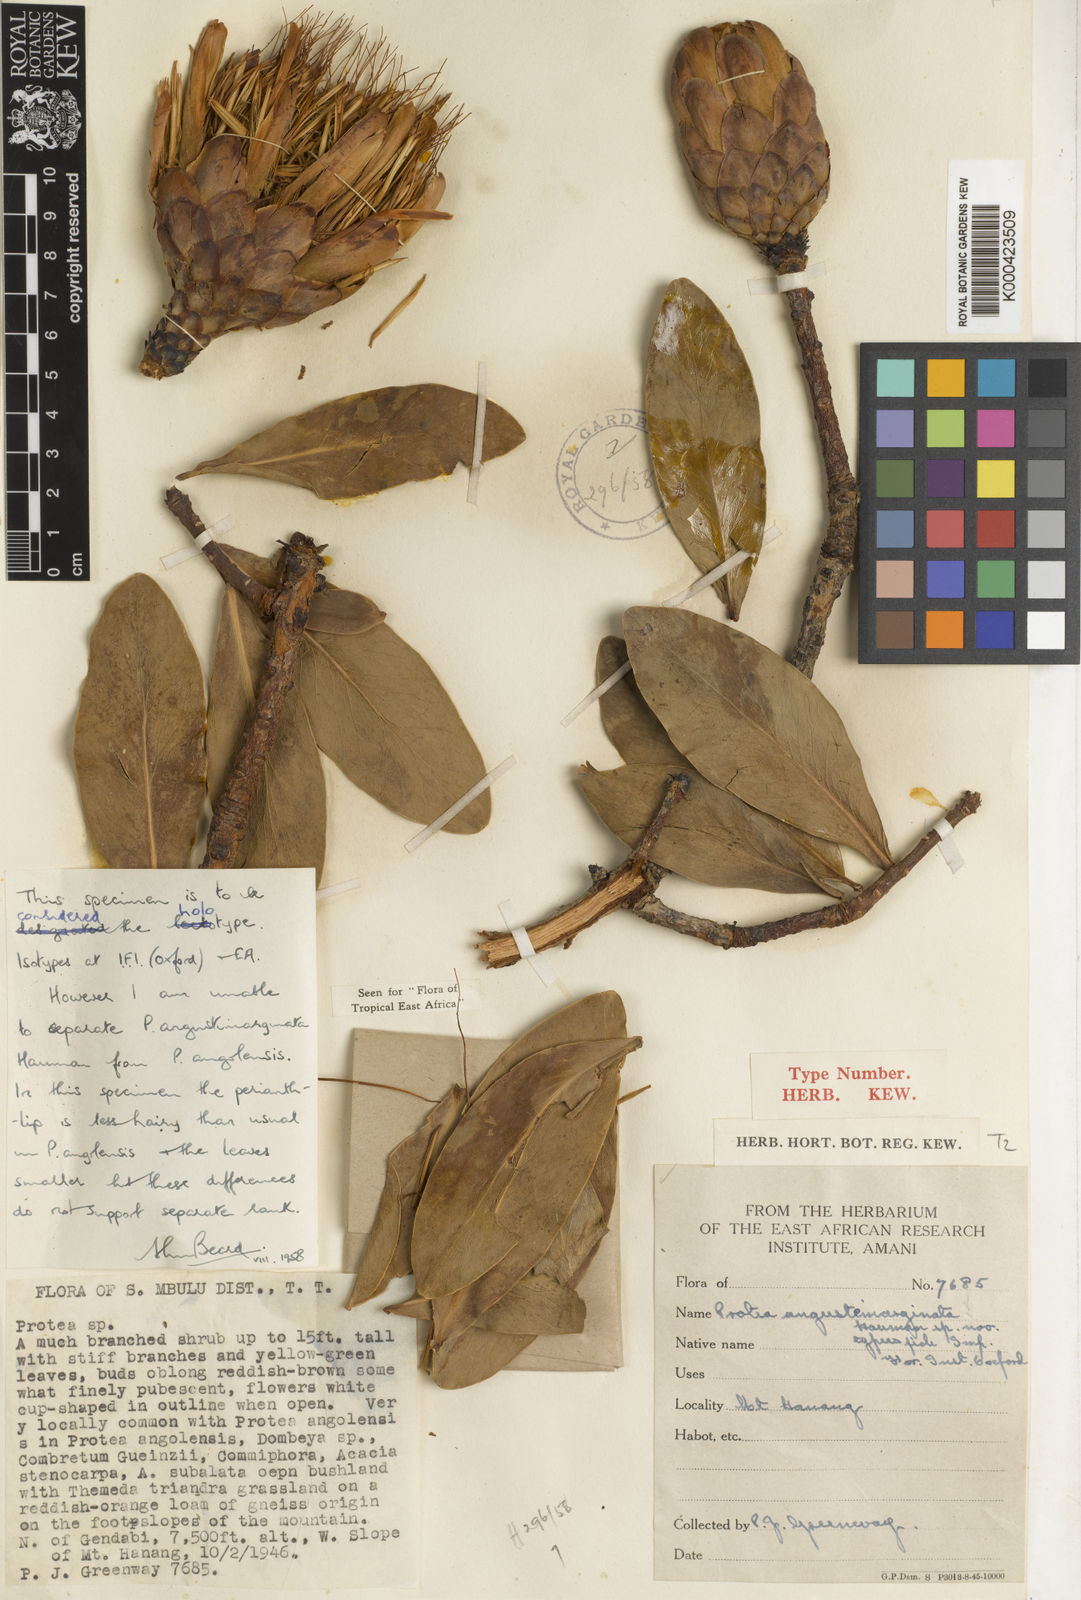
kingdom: Plantae
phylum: Tracheophyta
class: Magnoliopsida
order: Proteales
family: Proteaceae
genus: Protea
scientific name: Protea angolensis
